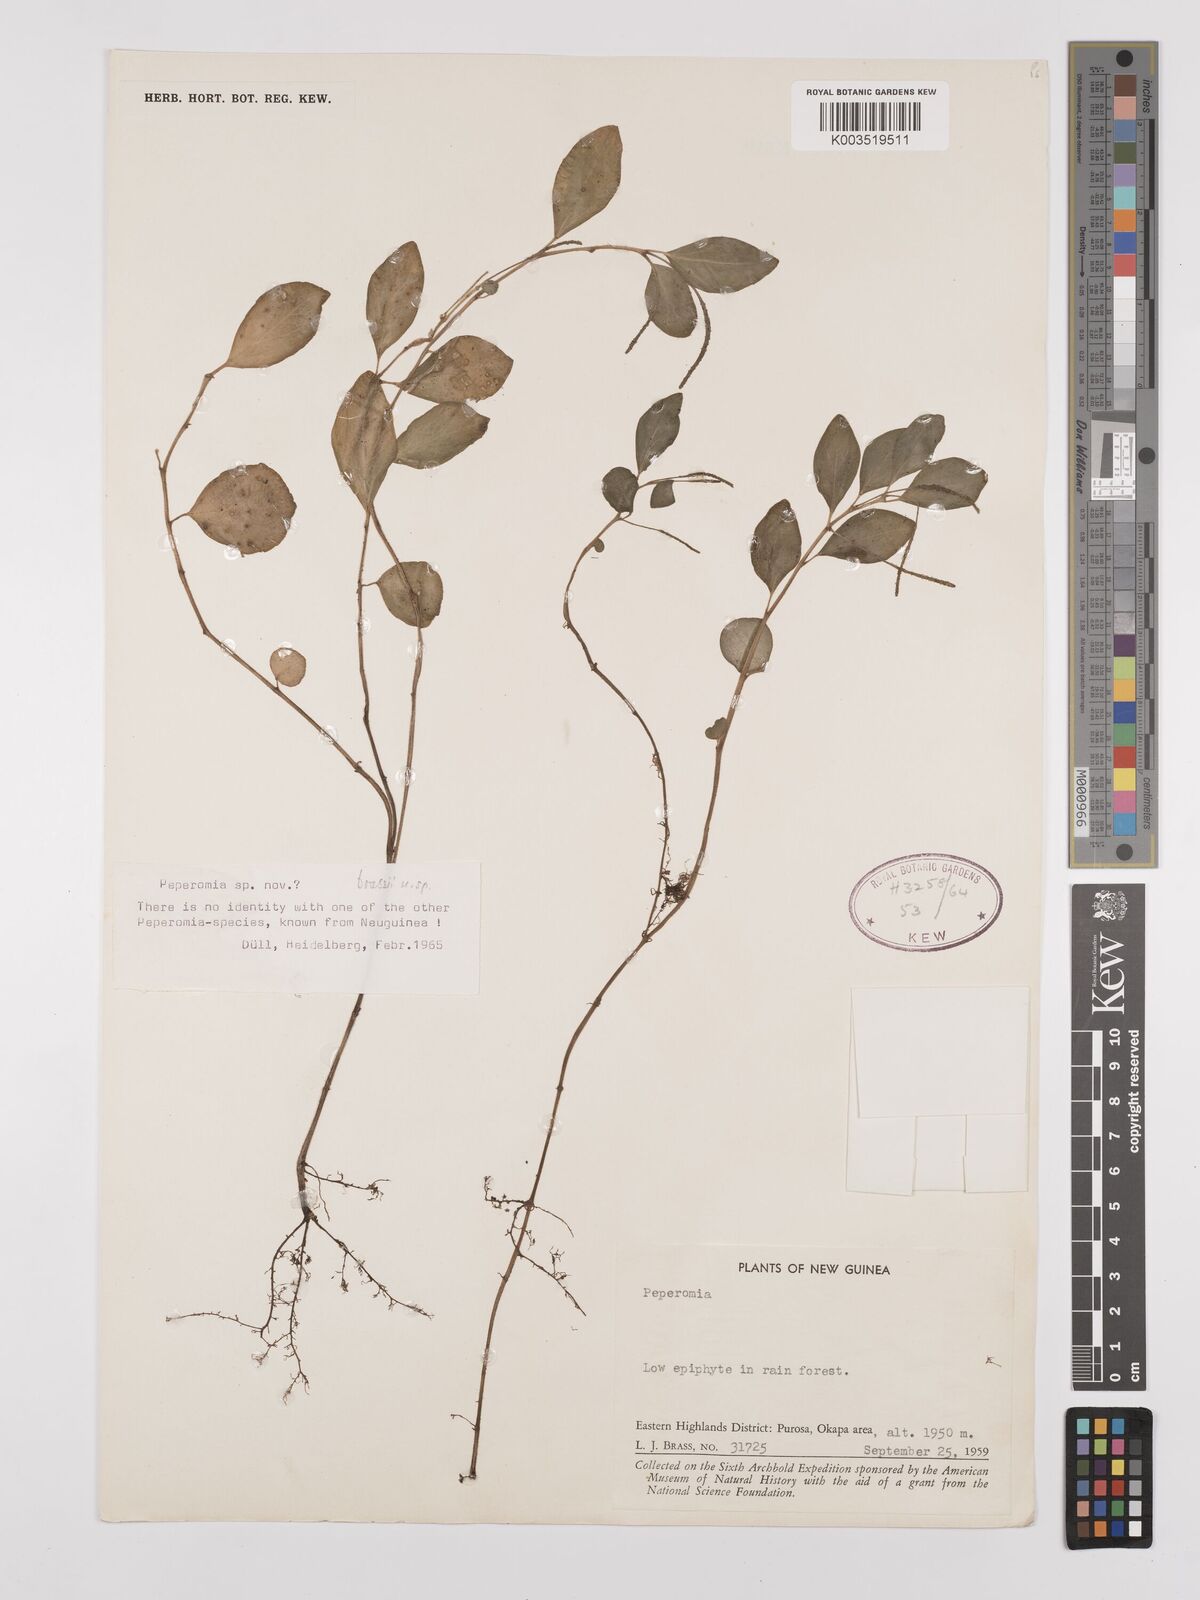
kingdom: Plantae
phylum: Tracheophyta
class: Magnoliopsida
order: Piperales
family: Piperaceae
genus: Peperomia
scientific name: Peperomia
